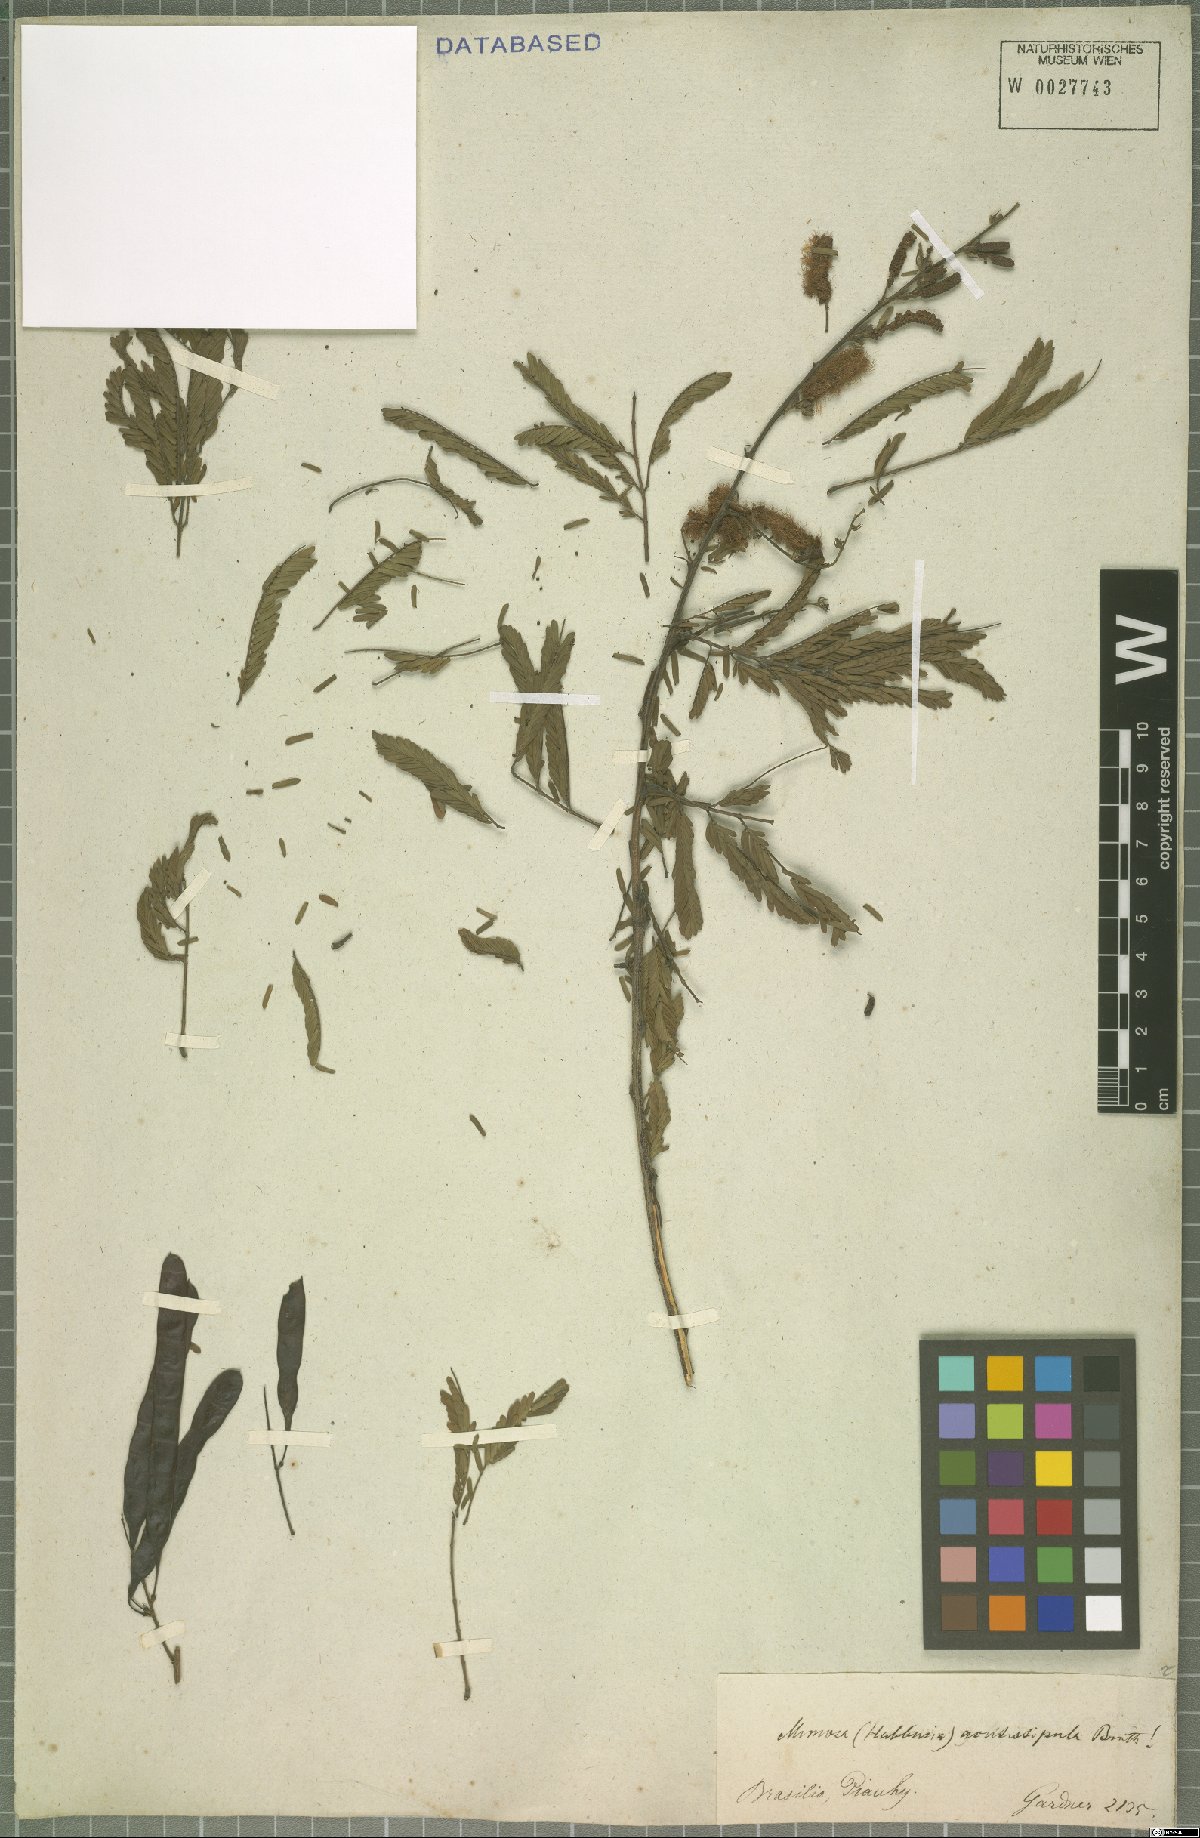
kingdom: Plantae
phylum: Tracheophyta
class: Magnoliopsida
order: Fabales
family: Fabaceae
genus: Mimosa
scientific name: Mimosa acutistipula
